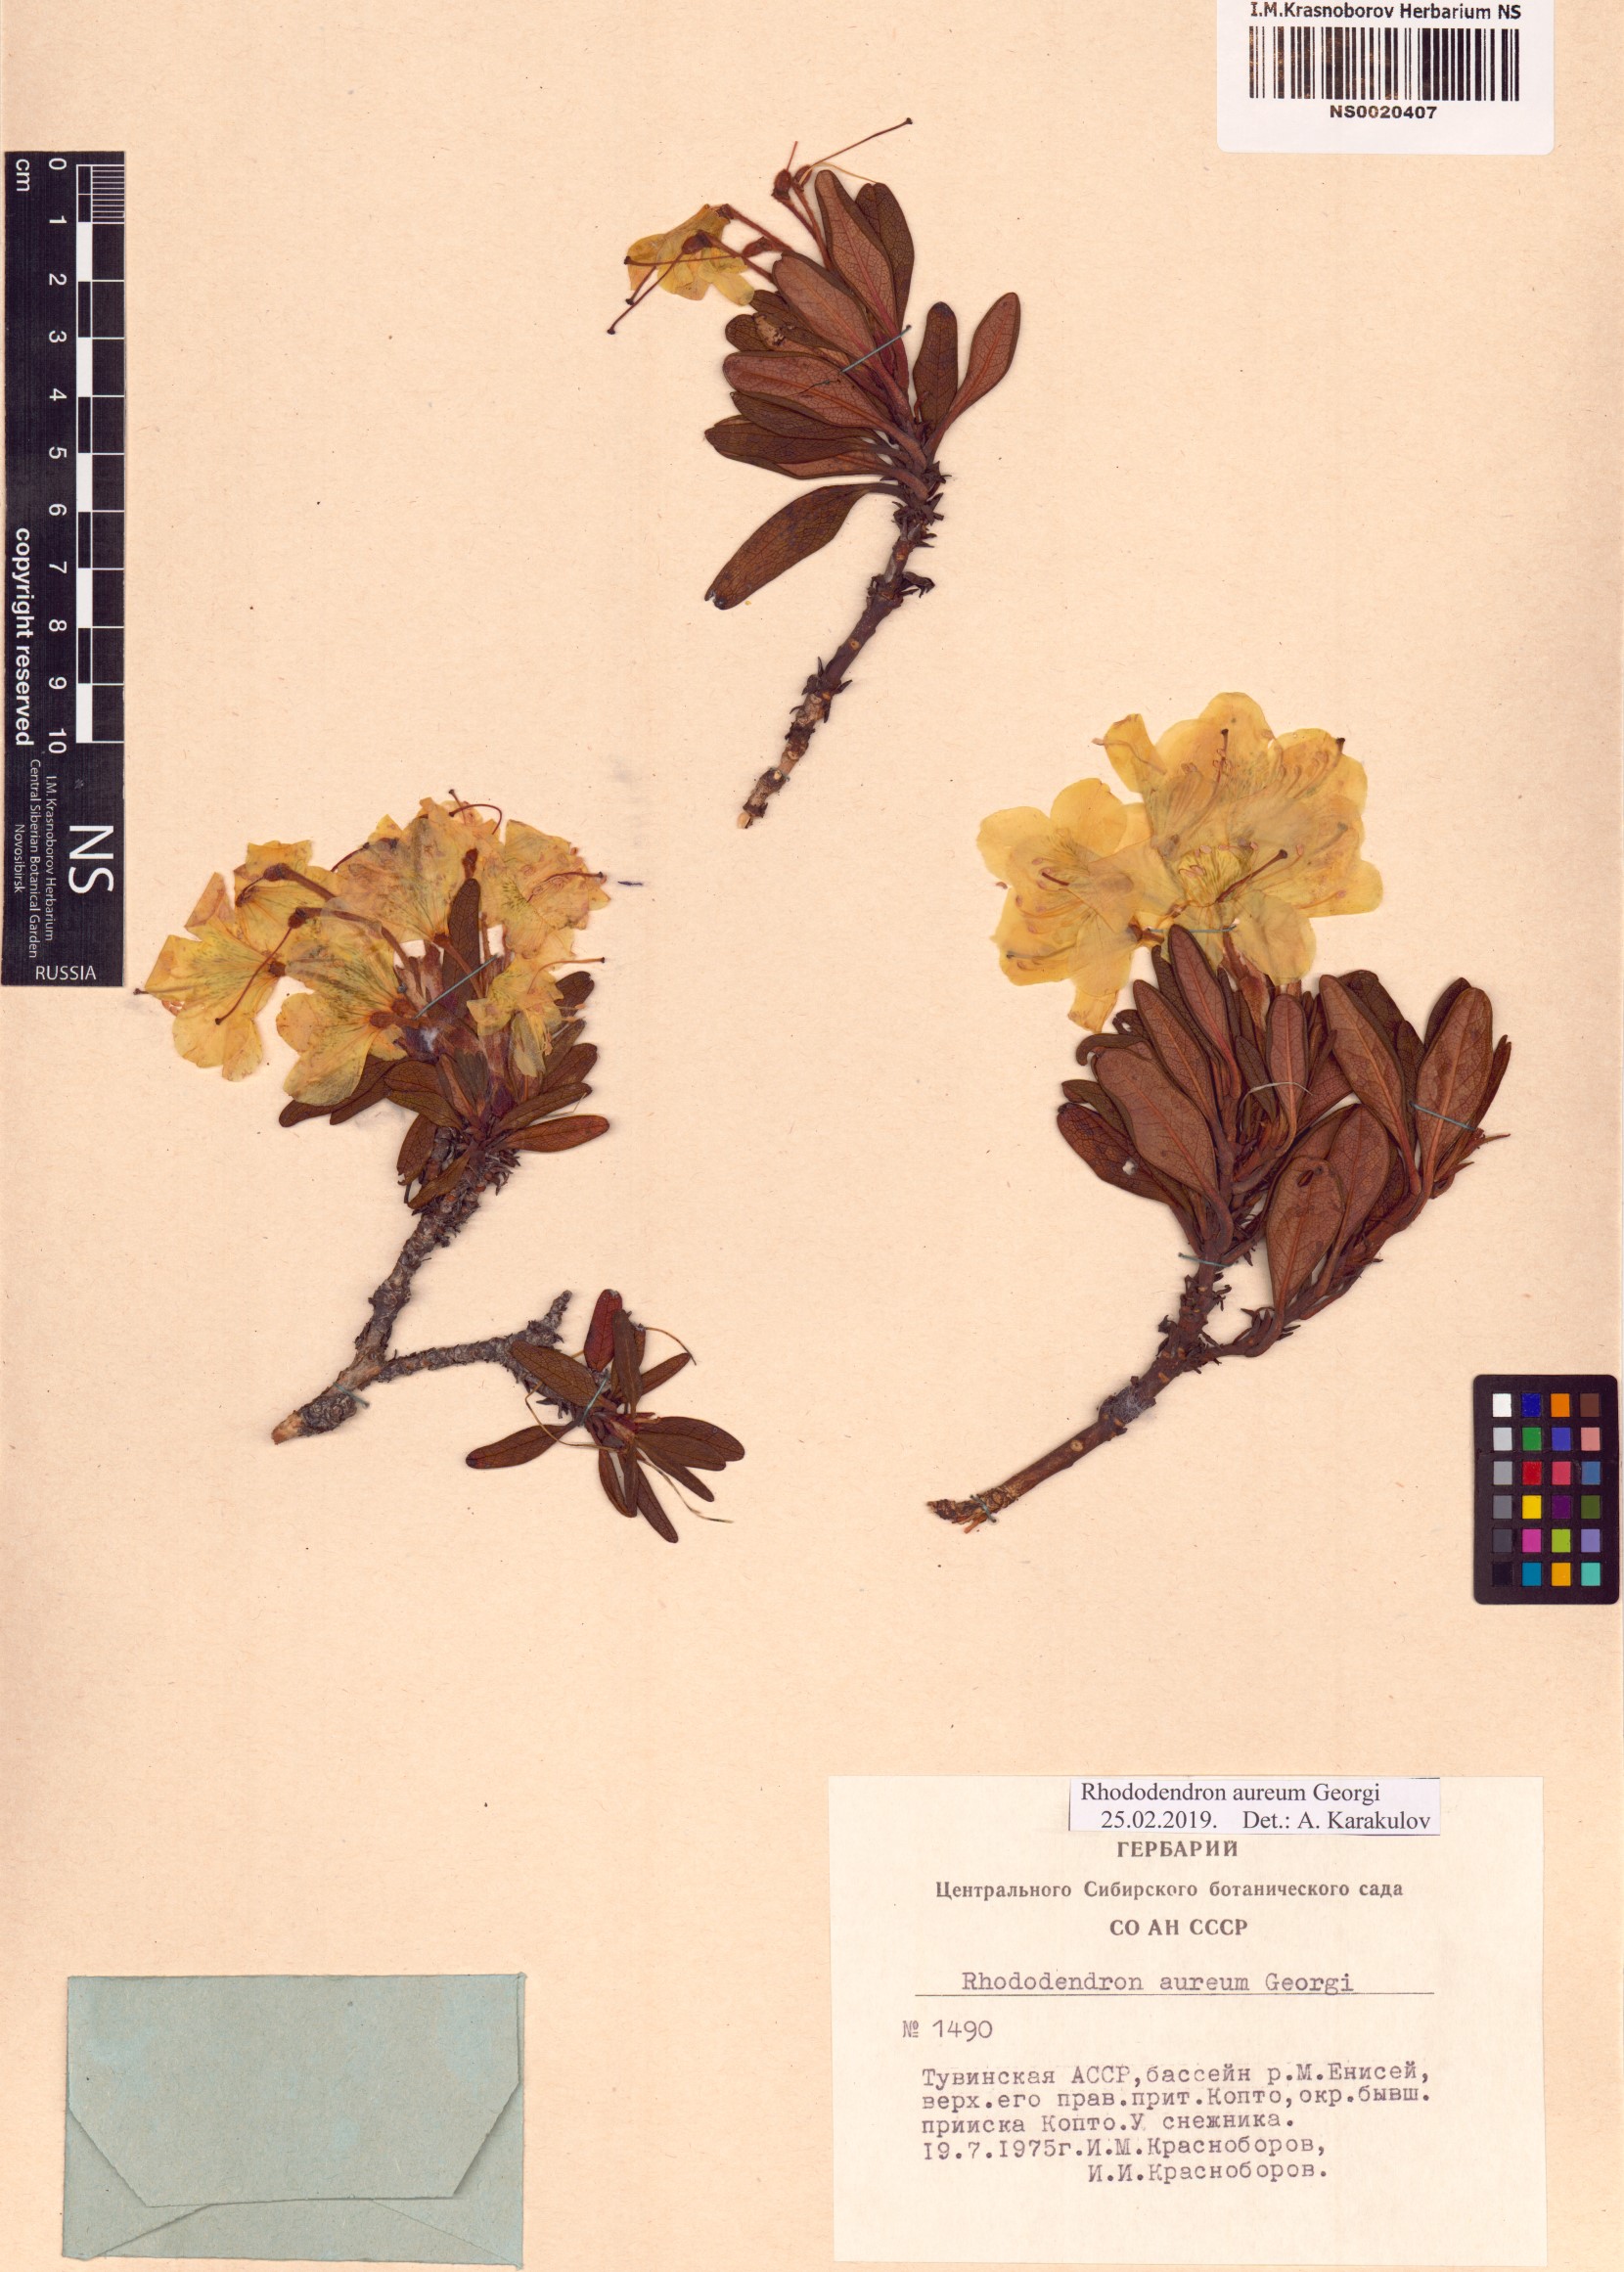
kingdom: Plantae
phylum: Tracheophyta
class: Magnoliopsida
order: Ericales
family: Ericaceae
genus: Rhododendron
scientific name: Rhododendron aureum
